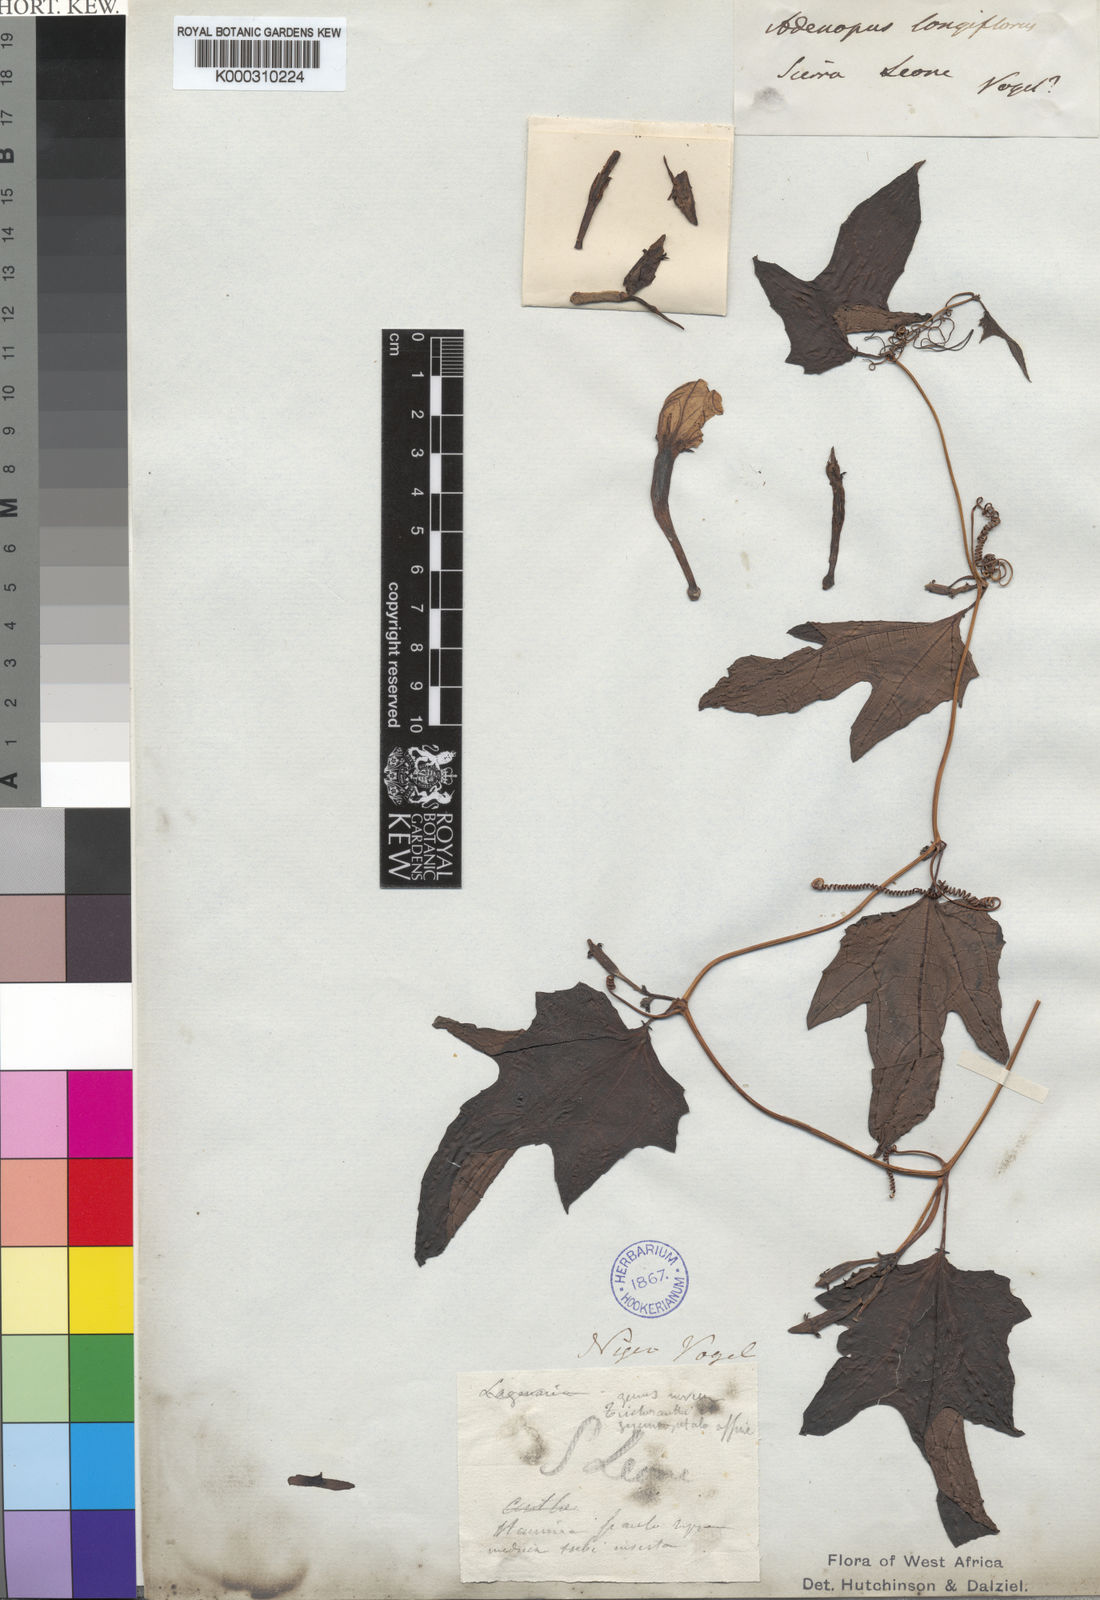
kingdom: Plantae
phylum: Tracheophyta
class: Magnoliopsida
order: Cucurbitales
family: Cucurbitaceae
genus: Lagenaria
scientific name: Lagenaria guineensis
